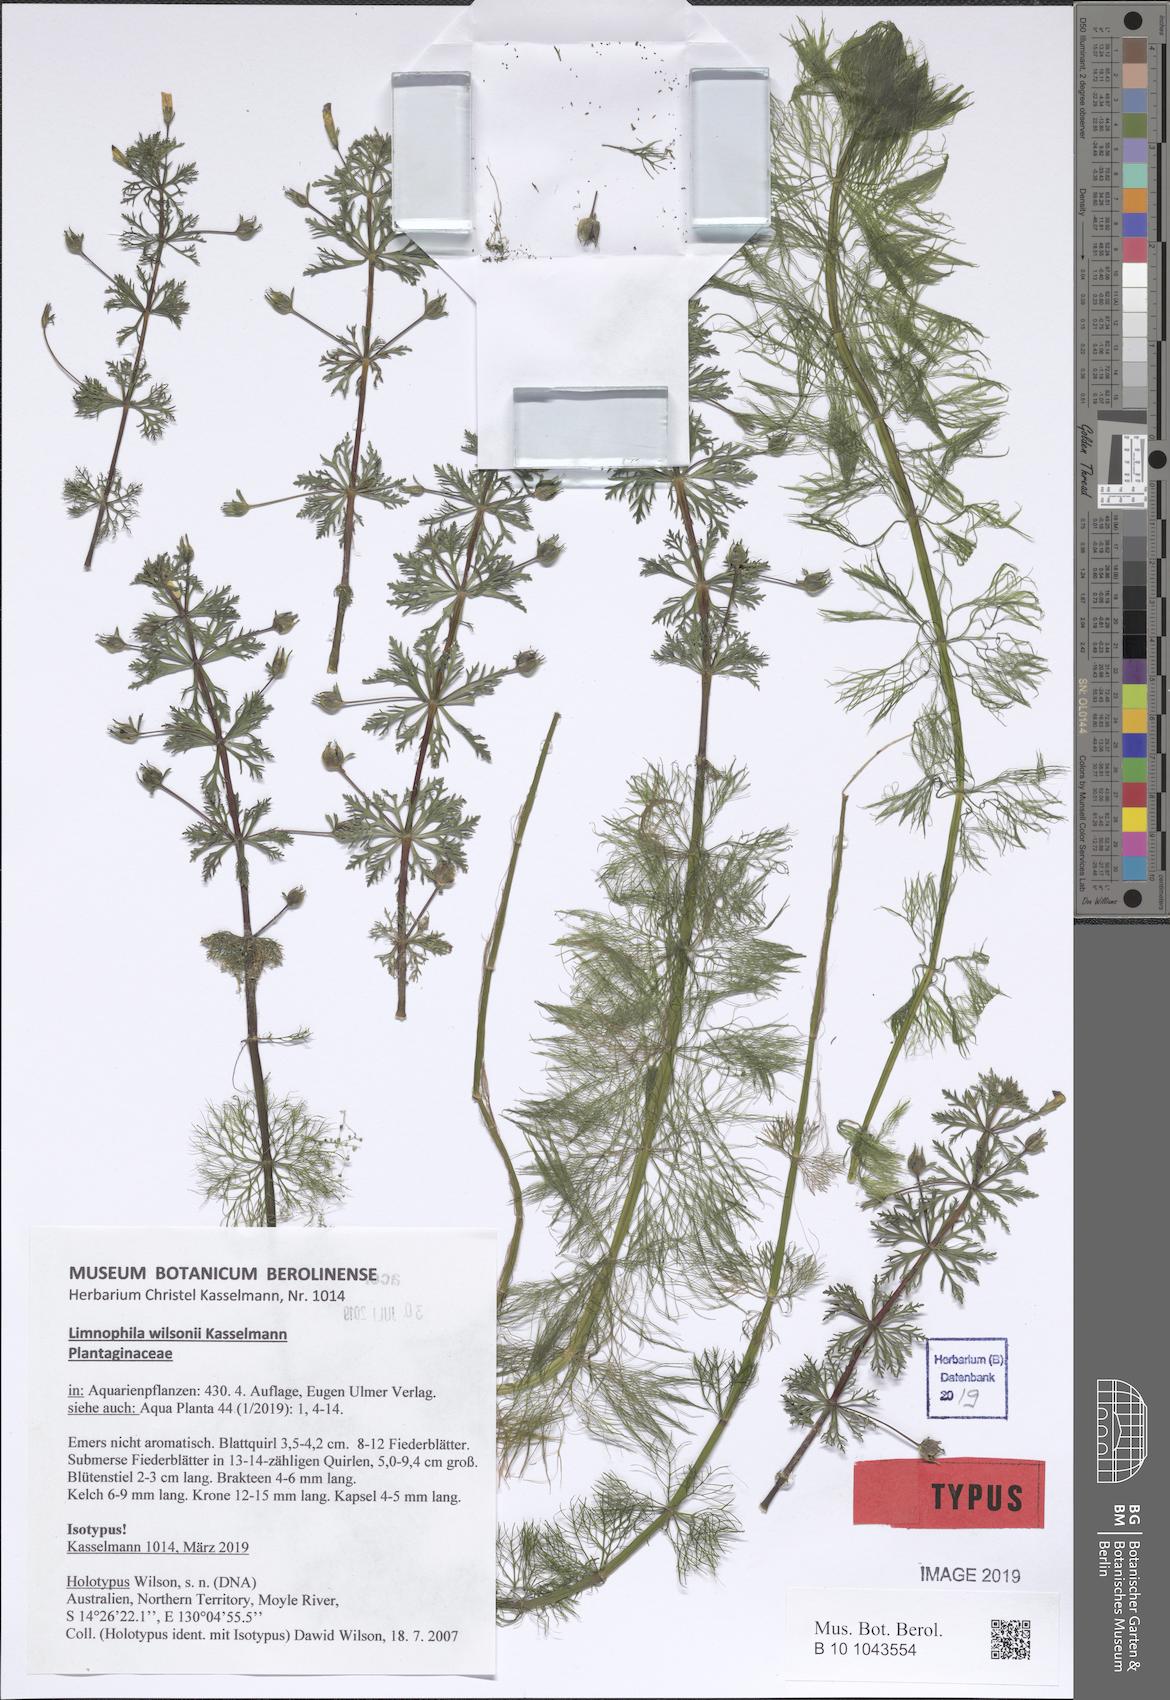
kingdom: Plantae
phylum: Tracheophyta
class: Magnoliopsida
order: Lamiales
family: Plantaginaceae
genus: Limnophila
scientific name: Limnophila wilsonii
